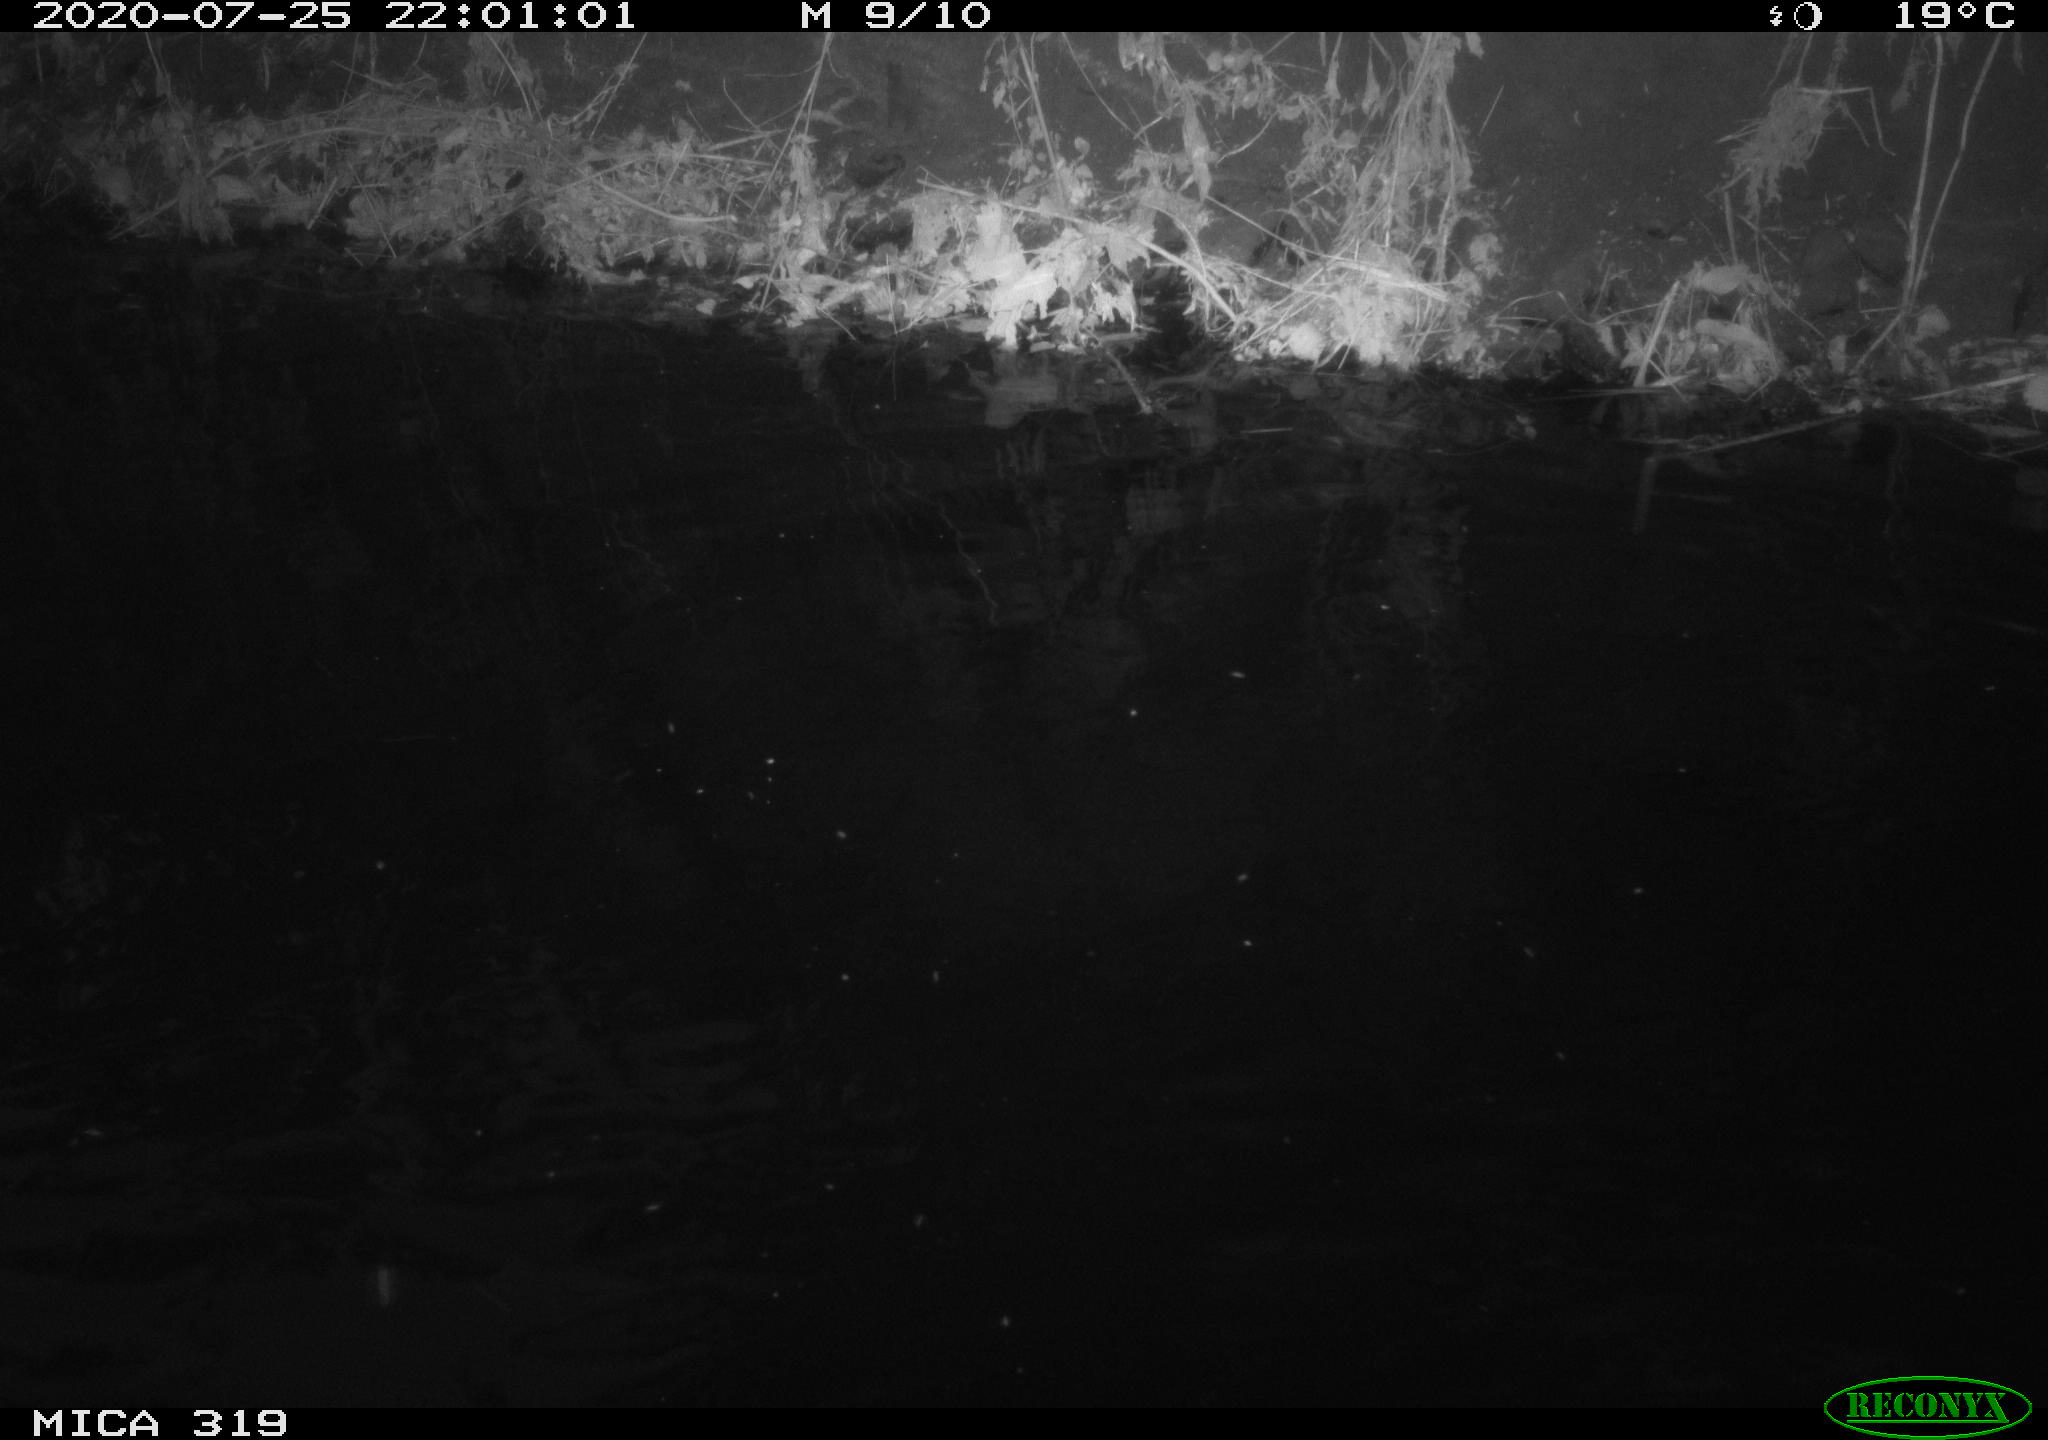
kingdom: Animalia
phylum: Chordata
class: Aves
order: Anseriformes
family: Anatidae
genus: Anas
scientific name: Anas platyrhynchos
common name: Mallard
